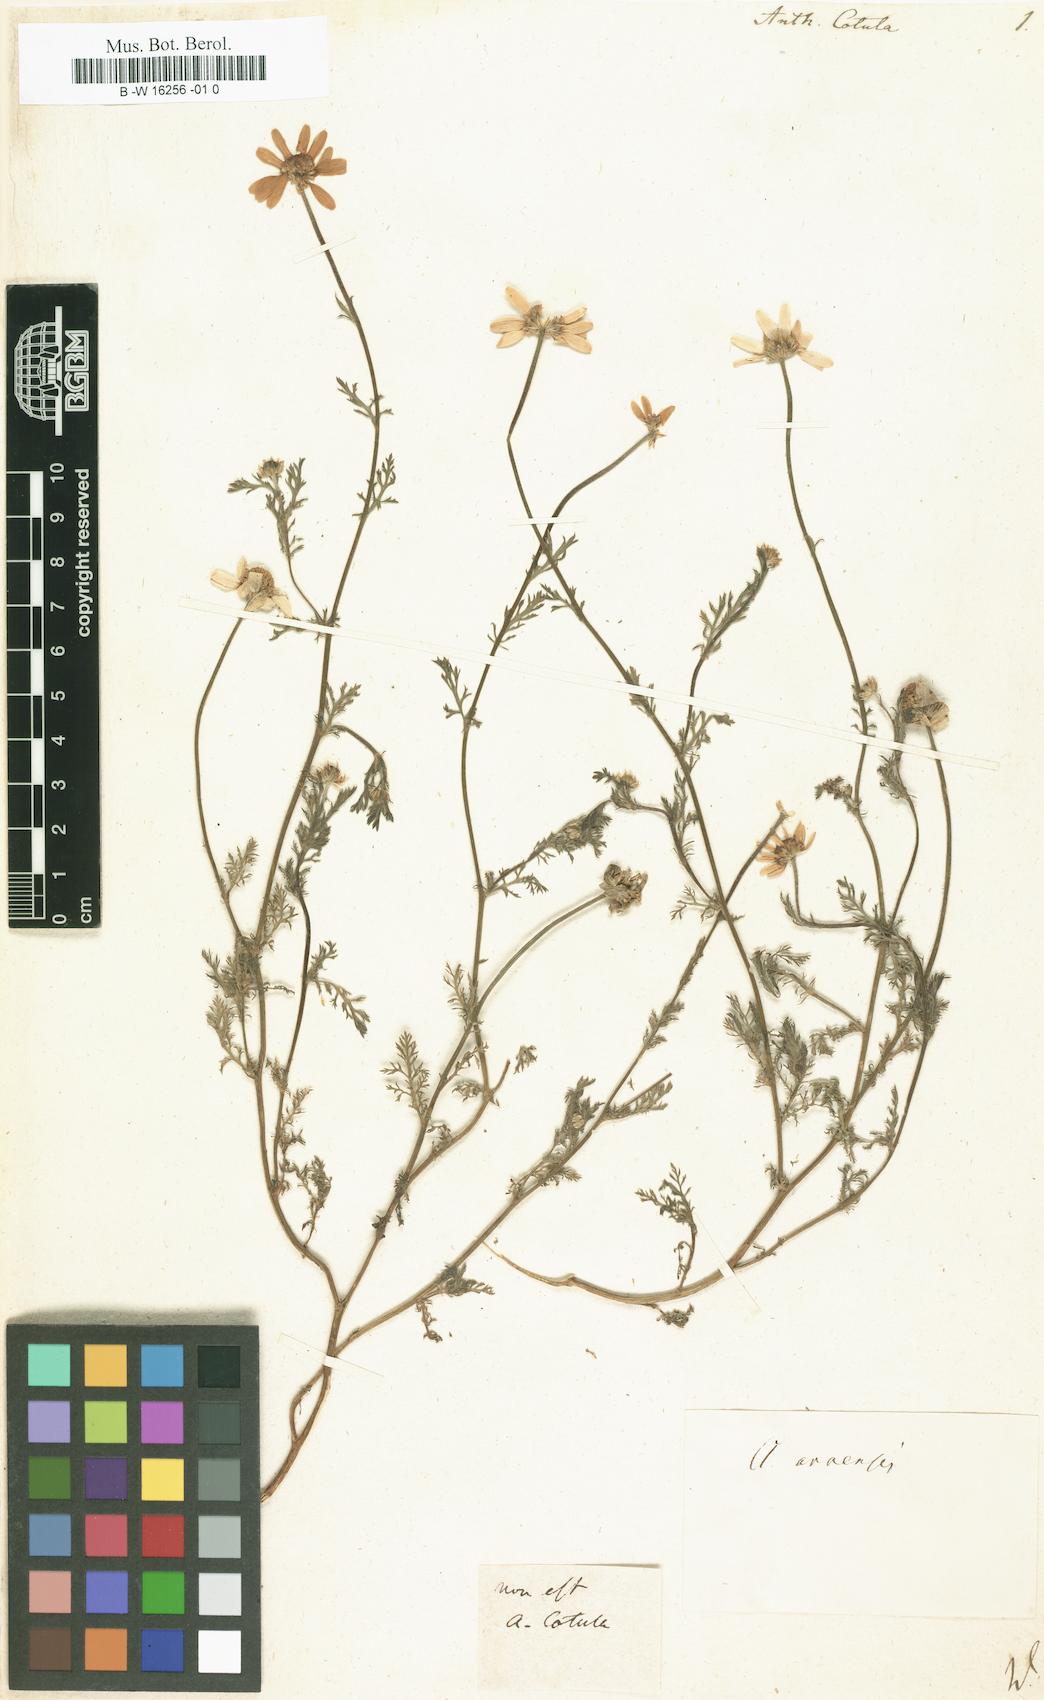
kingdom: Plantae
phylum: Tracheophyta
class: Magnoliopsida
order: Asterales
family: Asteraceae
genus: Anthemis
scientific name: Anthemis cotula
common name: Stinking chamomile
